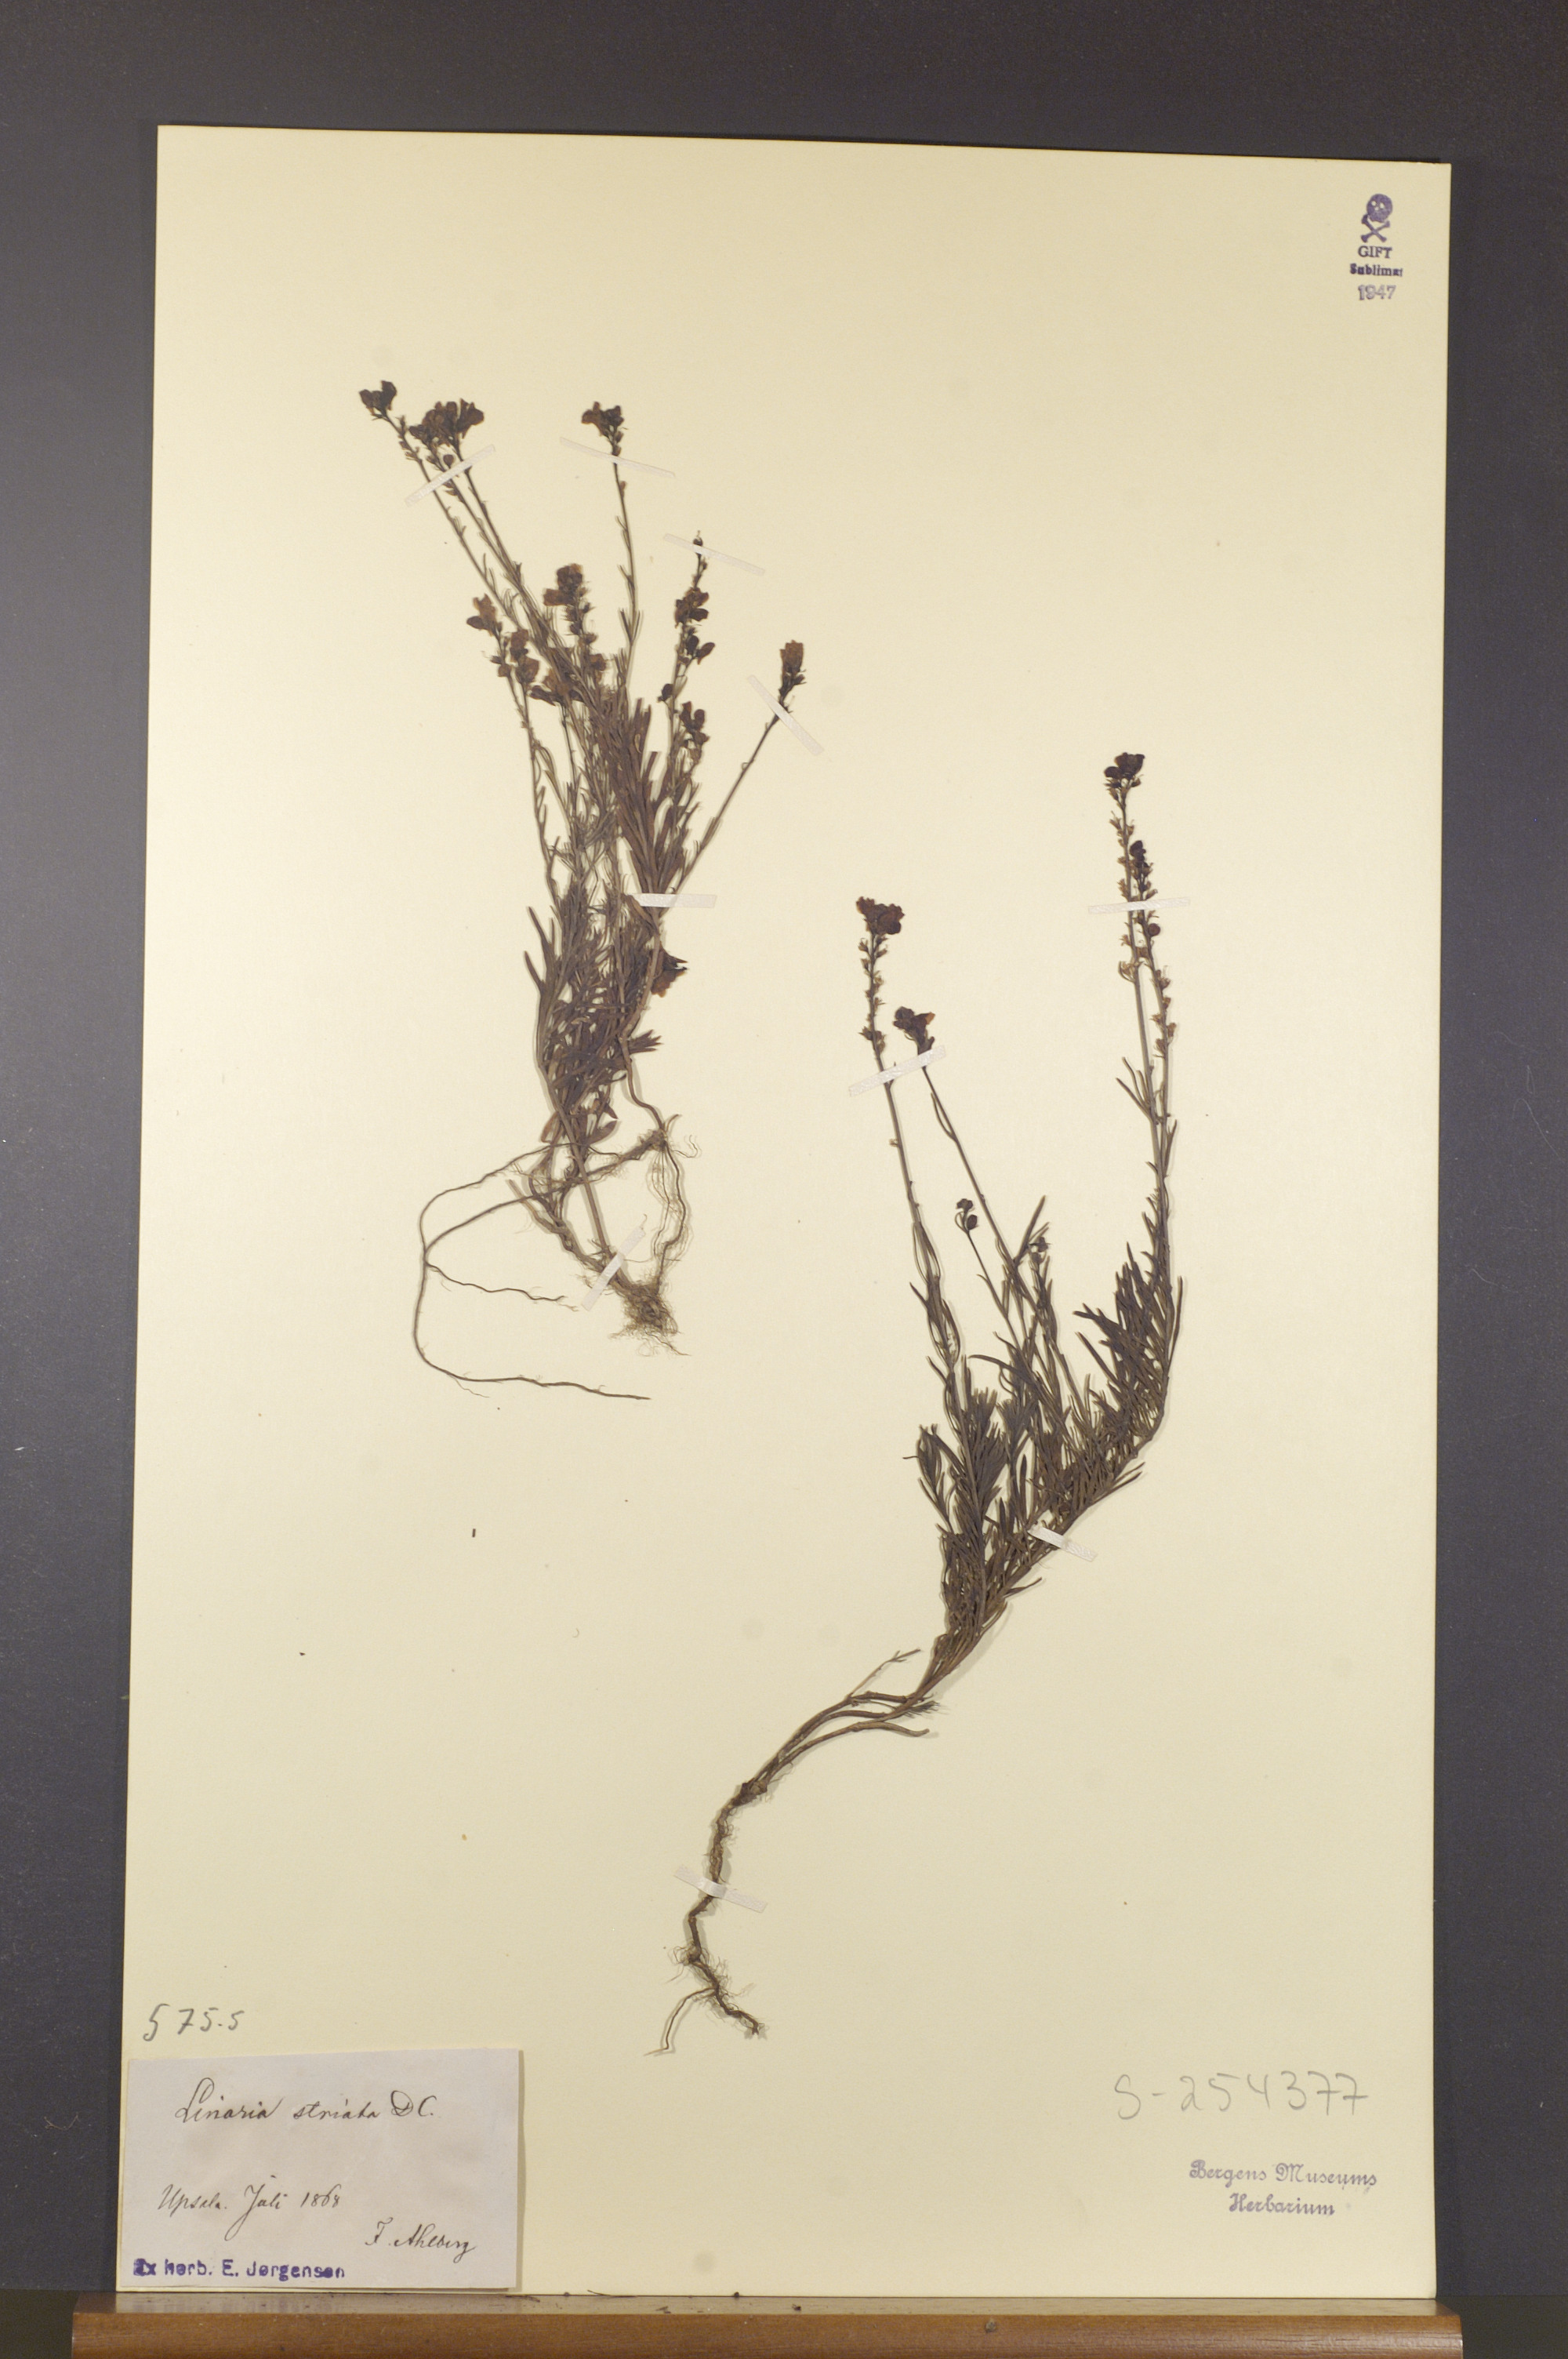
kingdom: Plantae
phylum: Tracheophyta
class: Magnoliopsida
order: Lamiales
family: Plantaginaceae
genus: Linaria
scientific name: Linaria repens
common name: Pale toadflax
